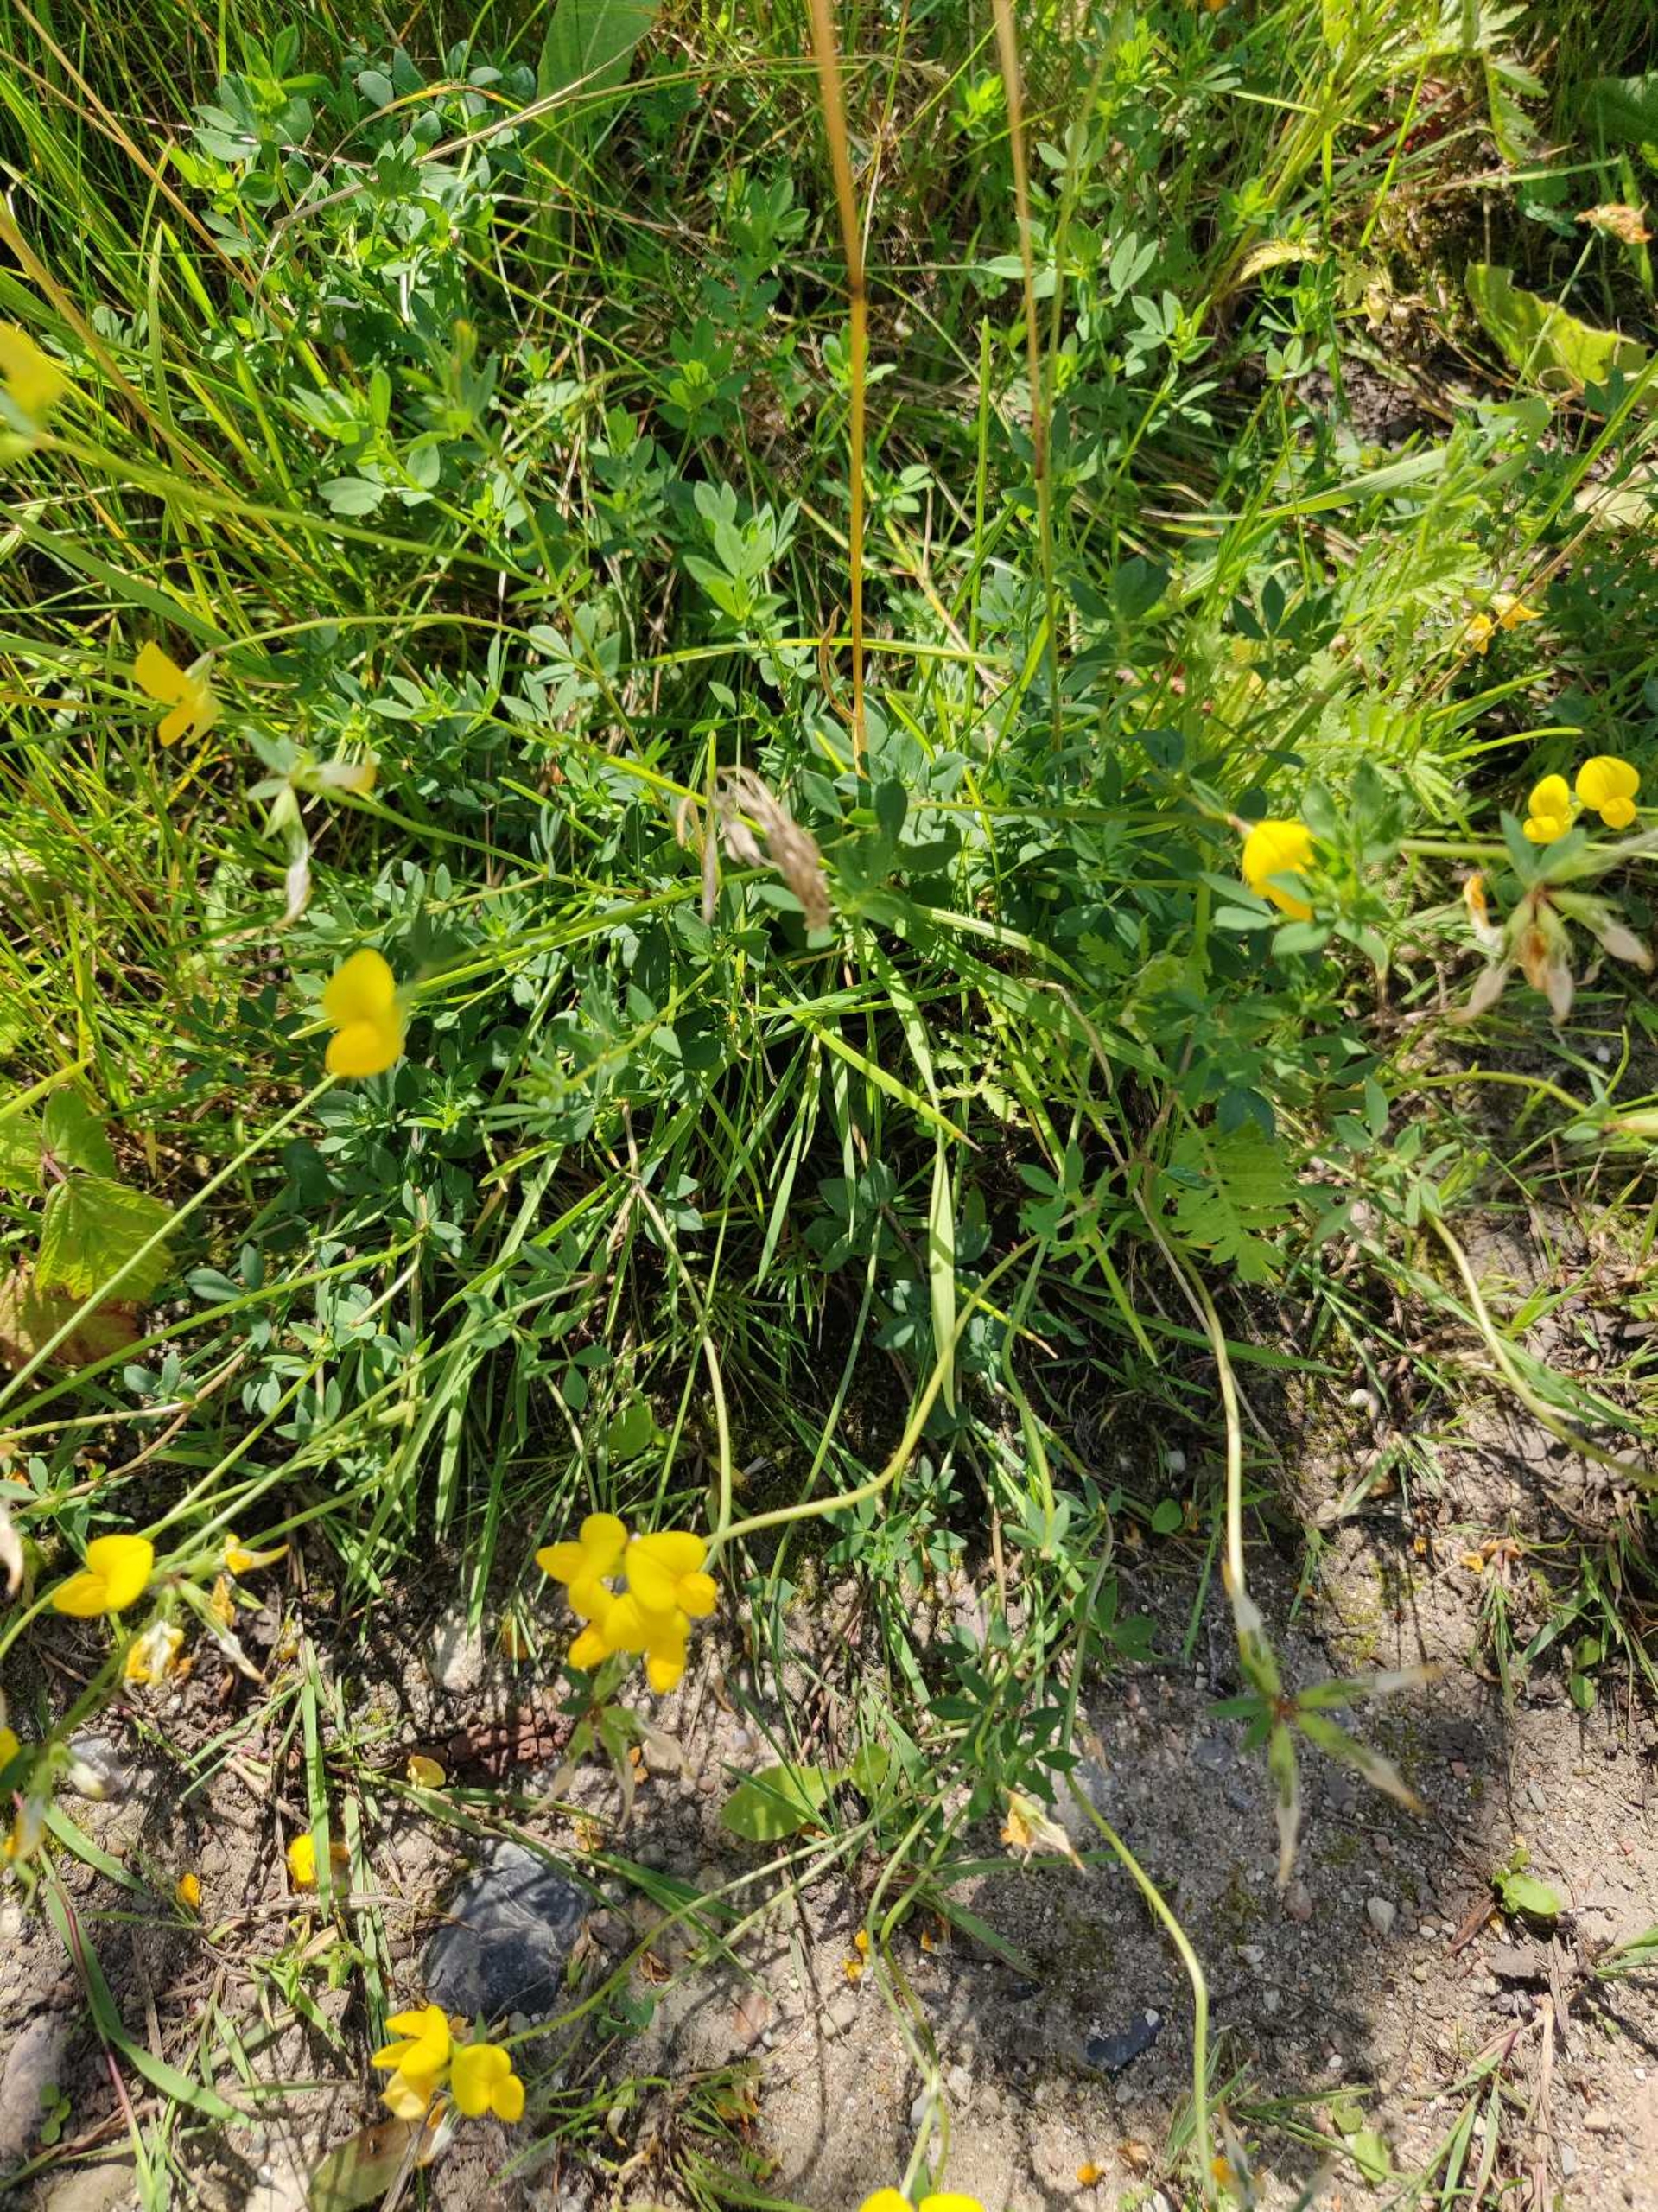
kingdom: Plantae
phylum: Tracheophyta
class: Magnoliopsida
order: Fabales
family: Fabaceae
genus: Lotus
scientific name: Lotus corniculatus
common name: Almindelig kællingetand
